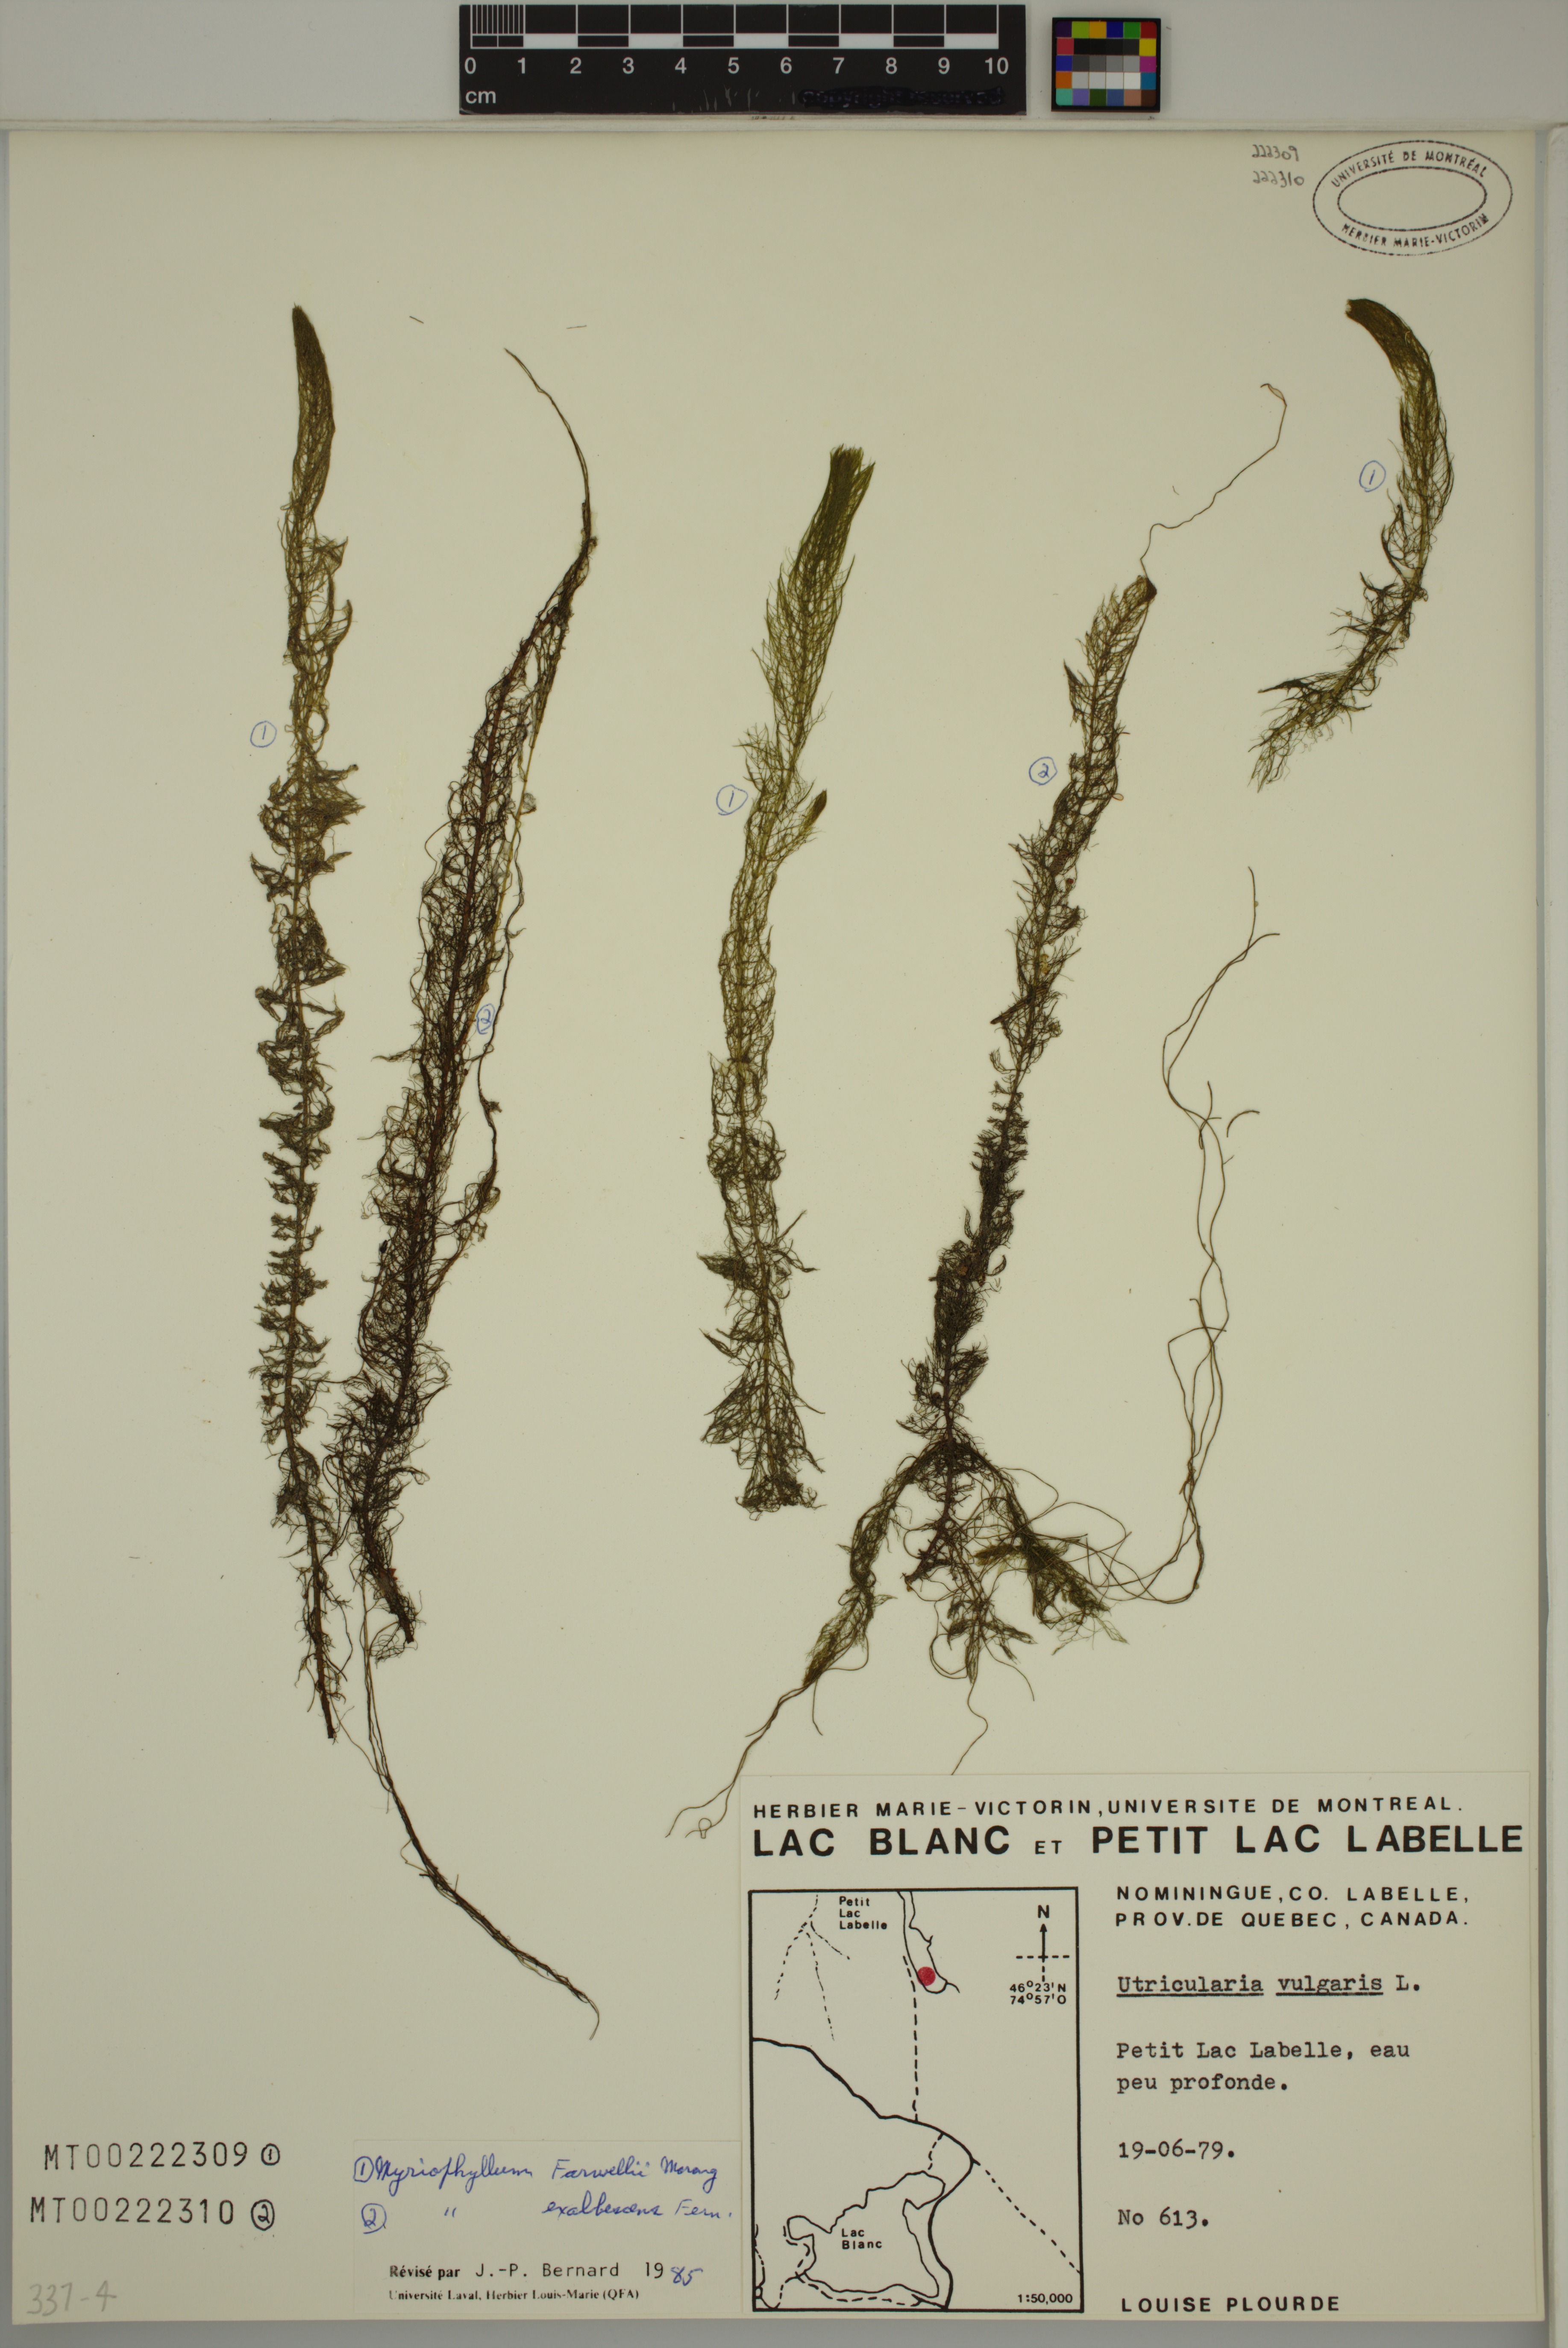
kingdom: Plantae
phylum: Tracheophyta
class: Magnoliopsida
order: Saxifragales
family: Haloragaceae
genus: Myriophyllum
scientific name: Myriophyllum farwellii
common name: Farwell's water-milfoil
